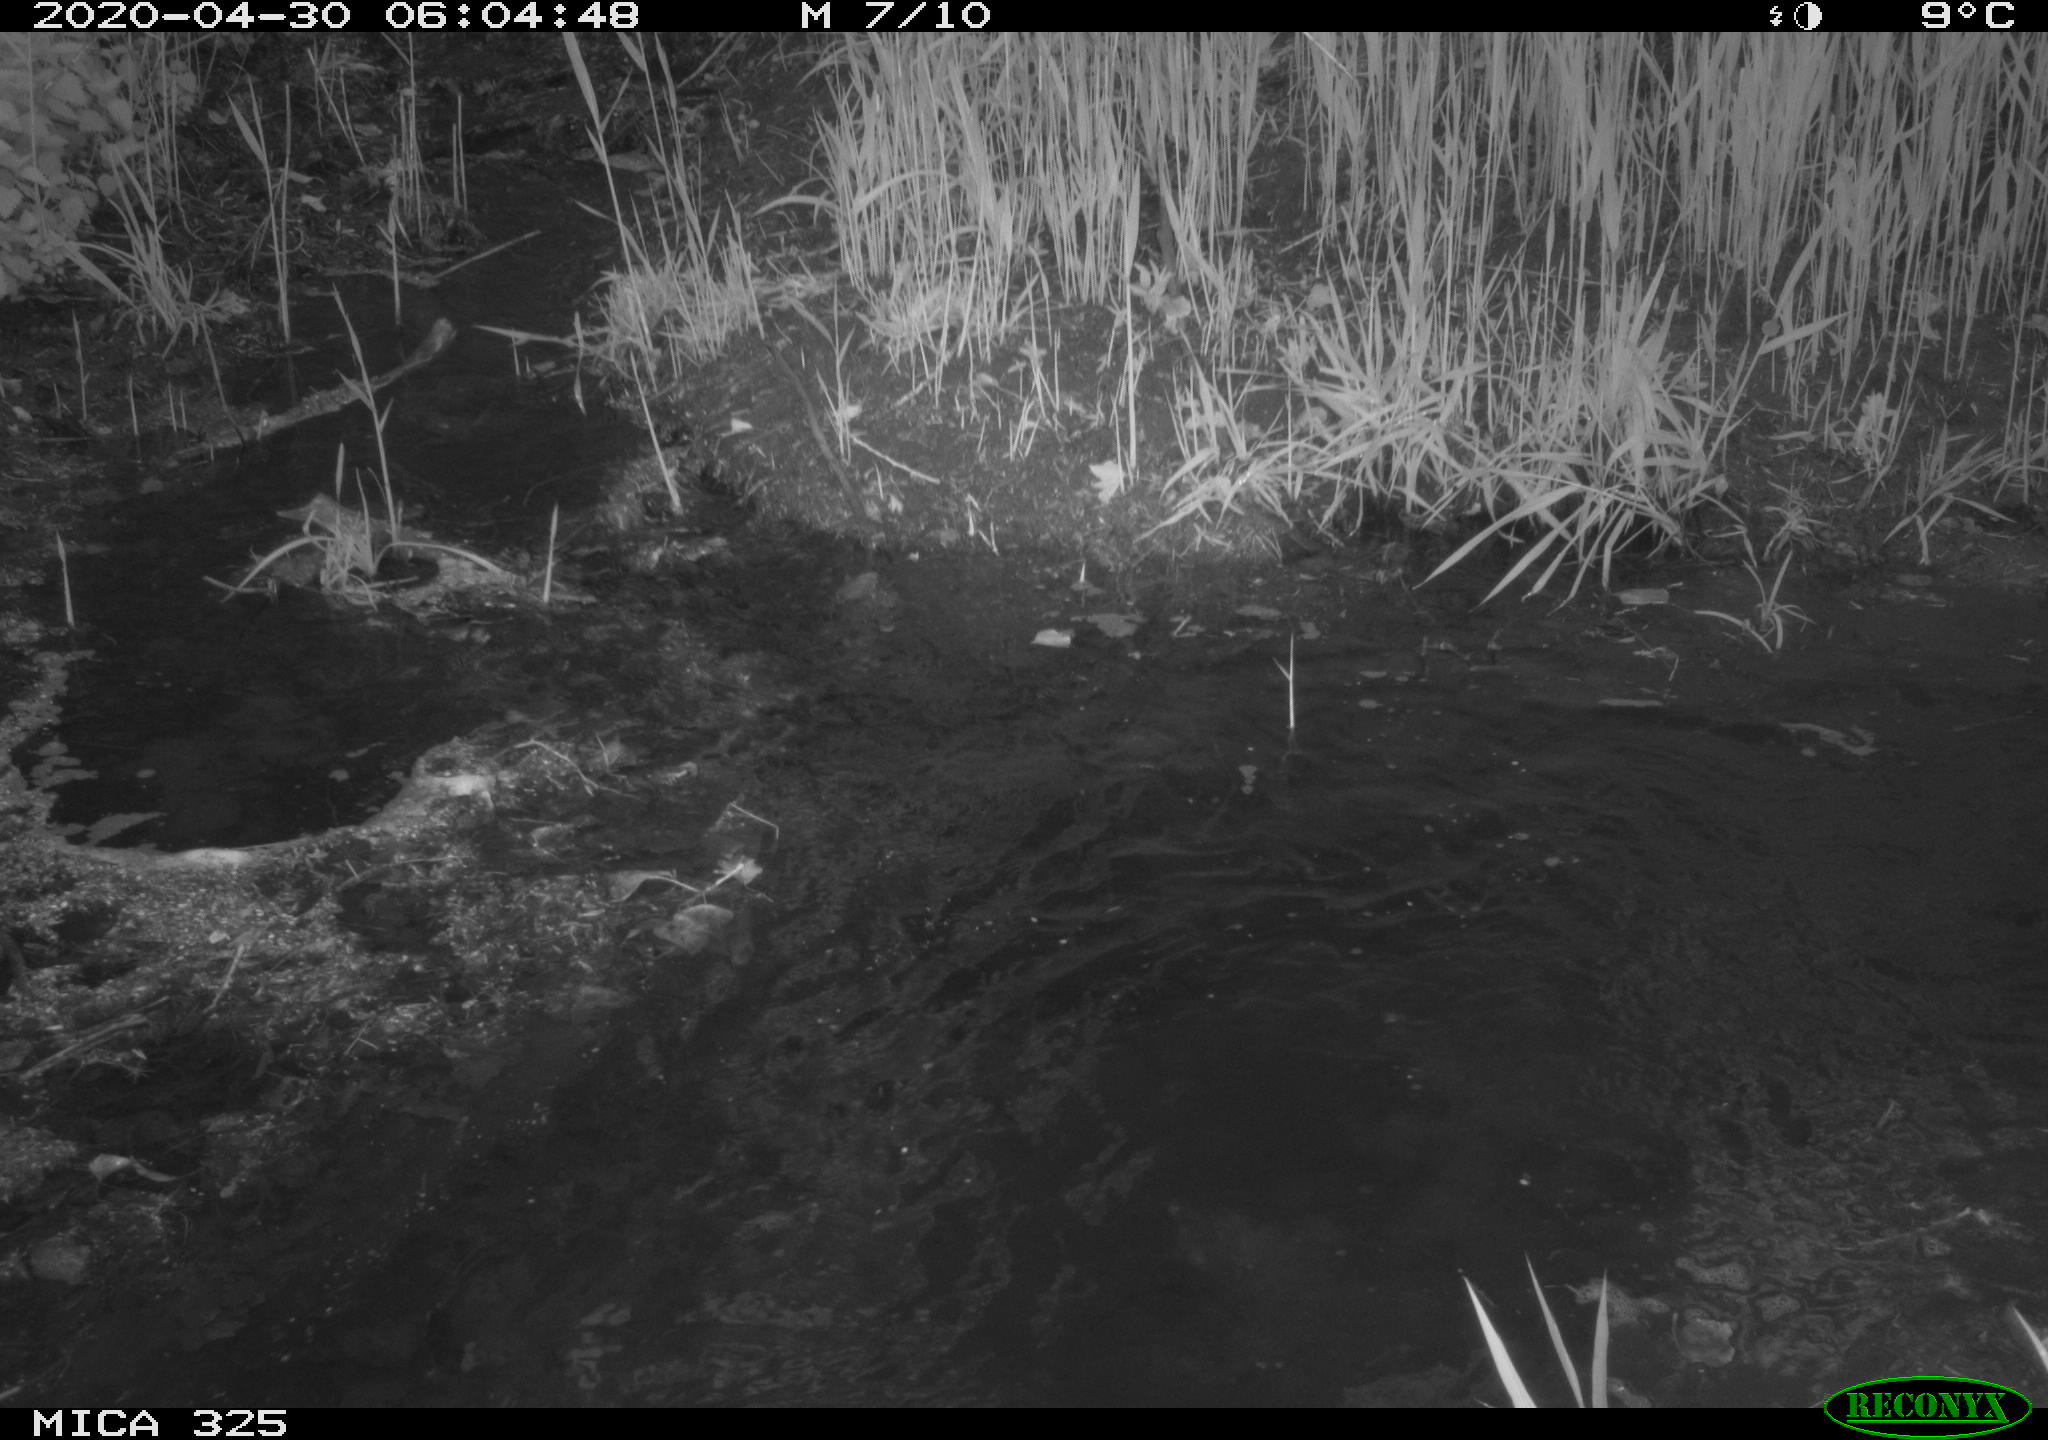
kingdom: Animalia
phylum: Chordata
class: Mammalia
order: Rodentia
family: Myocastoridae
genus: Myocastor
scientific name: Myocastor coypus
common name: Coypu
